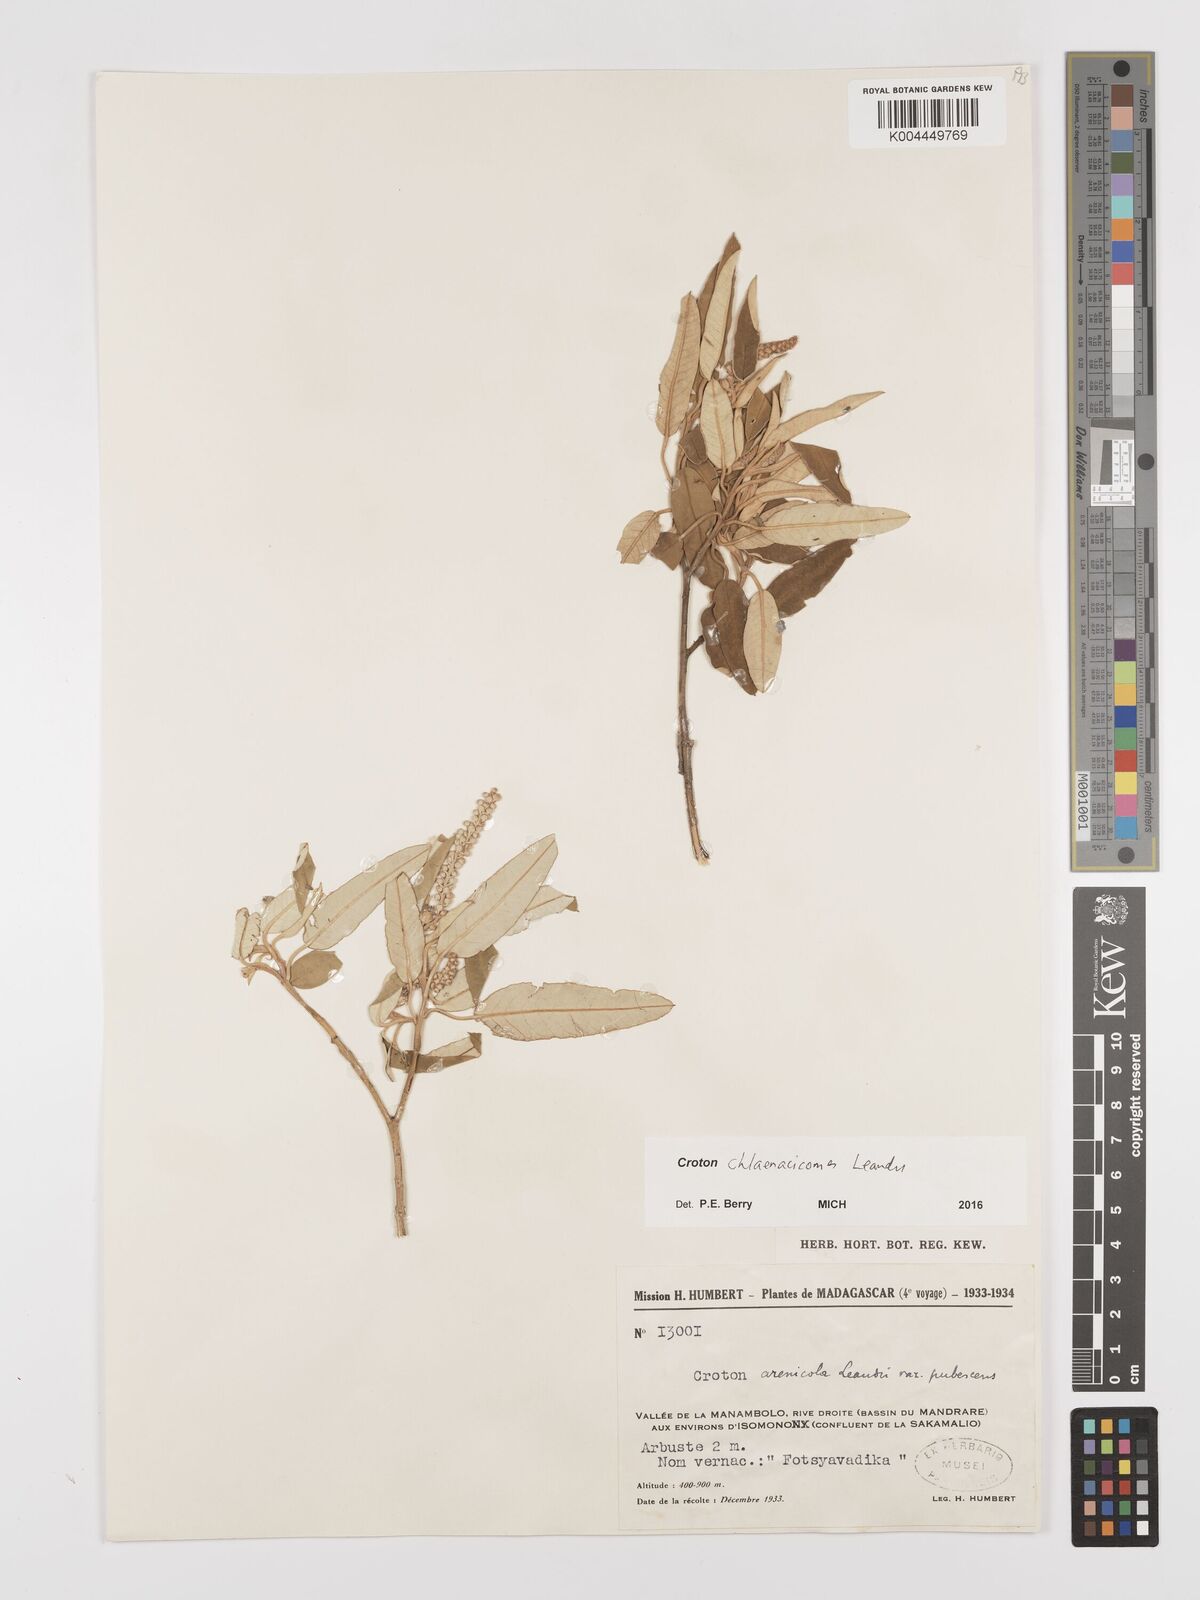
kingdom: Plantae
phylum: Tracheophyta
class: Magnoliopsida
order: Malpighiales
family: Euphorbiaceae
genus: Croton
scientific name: Croton chlaenacicomes
